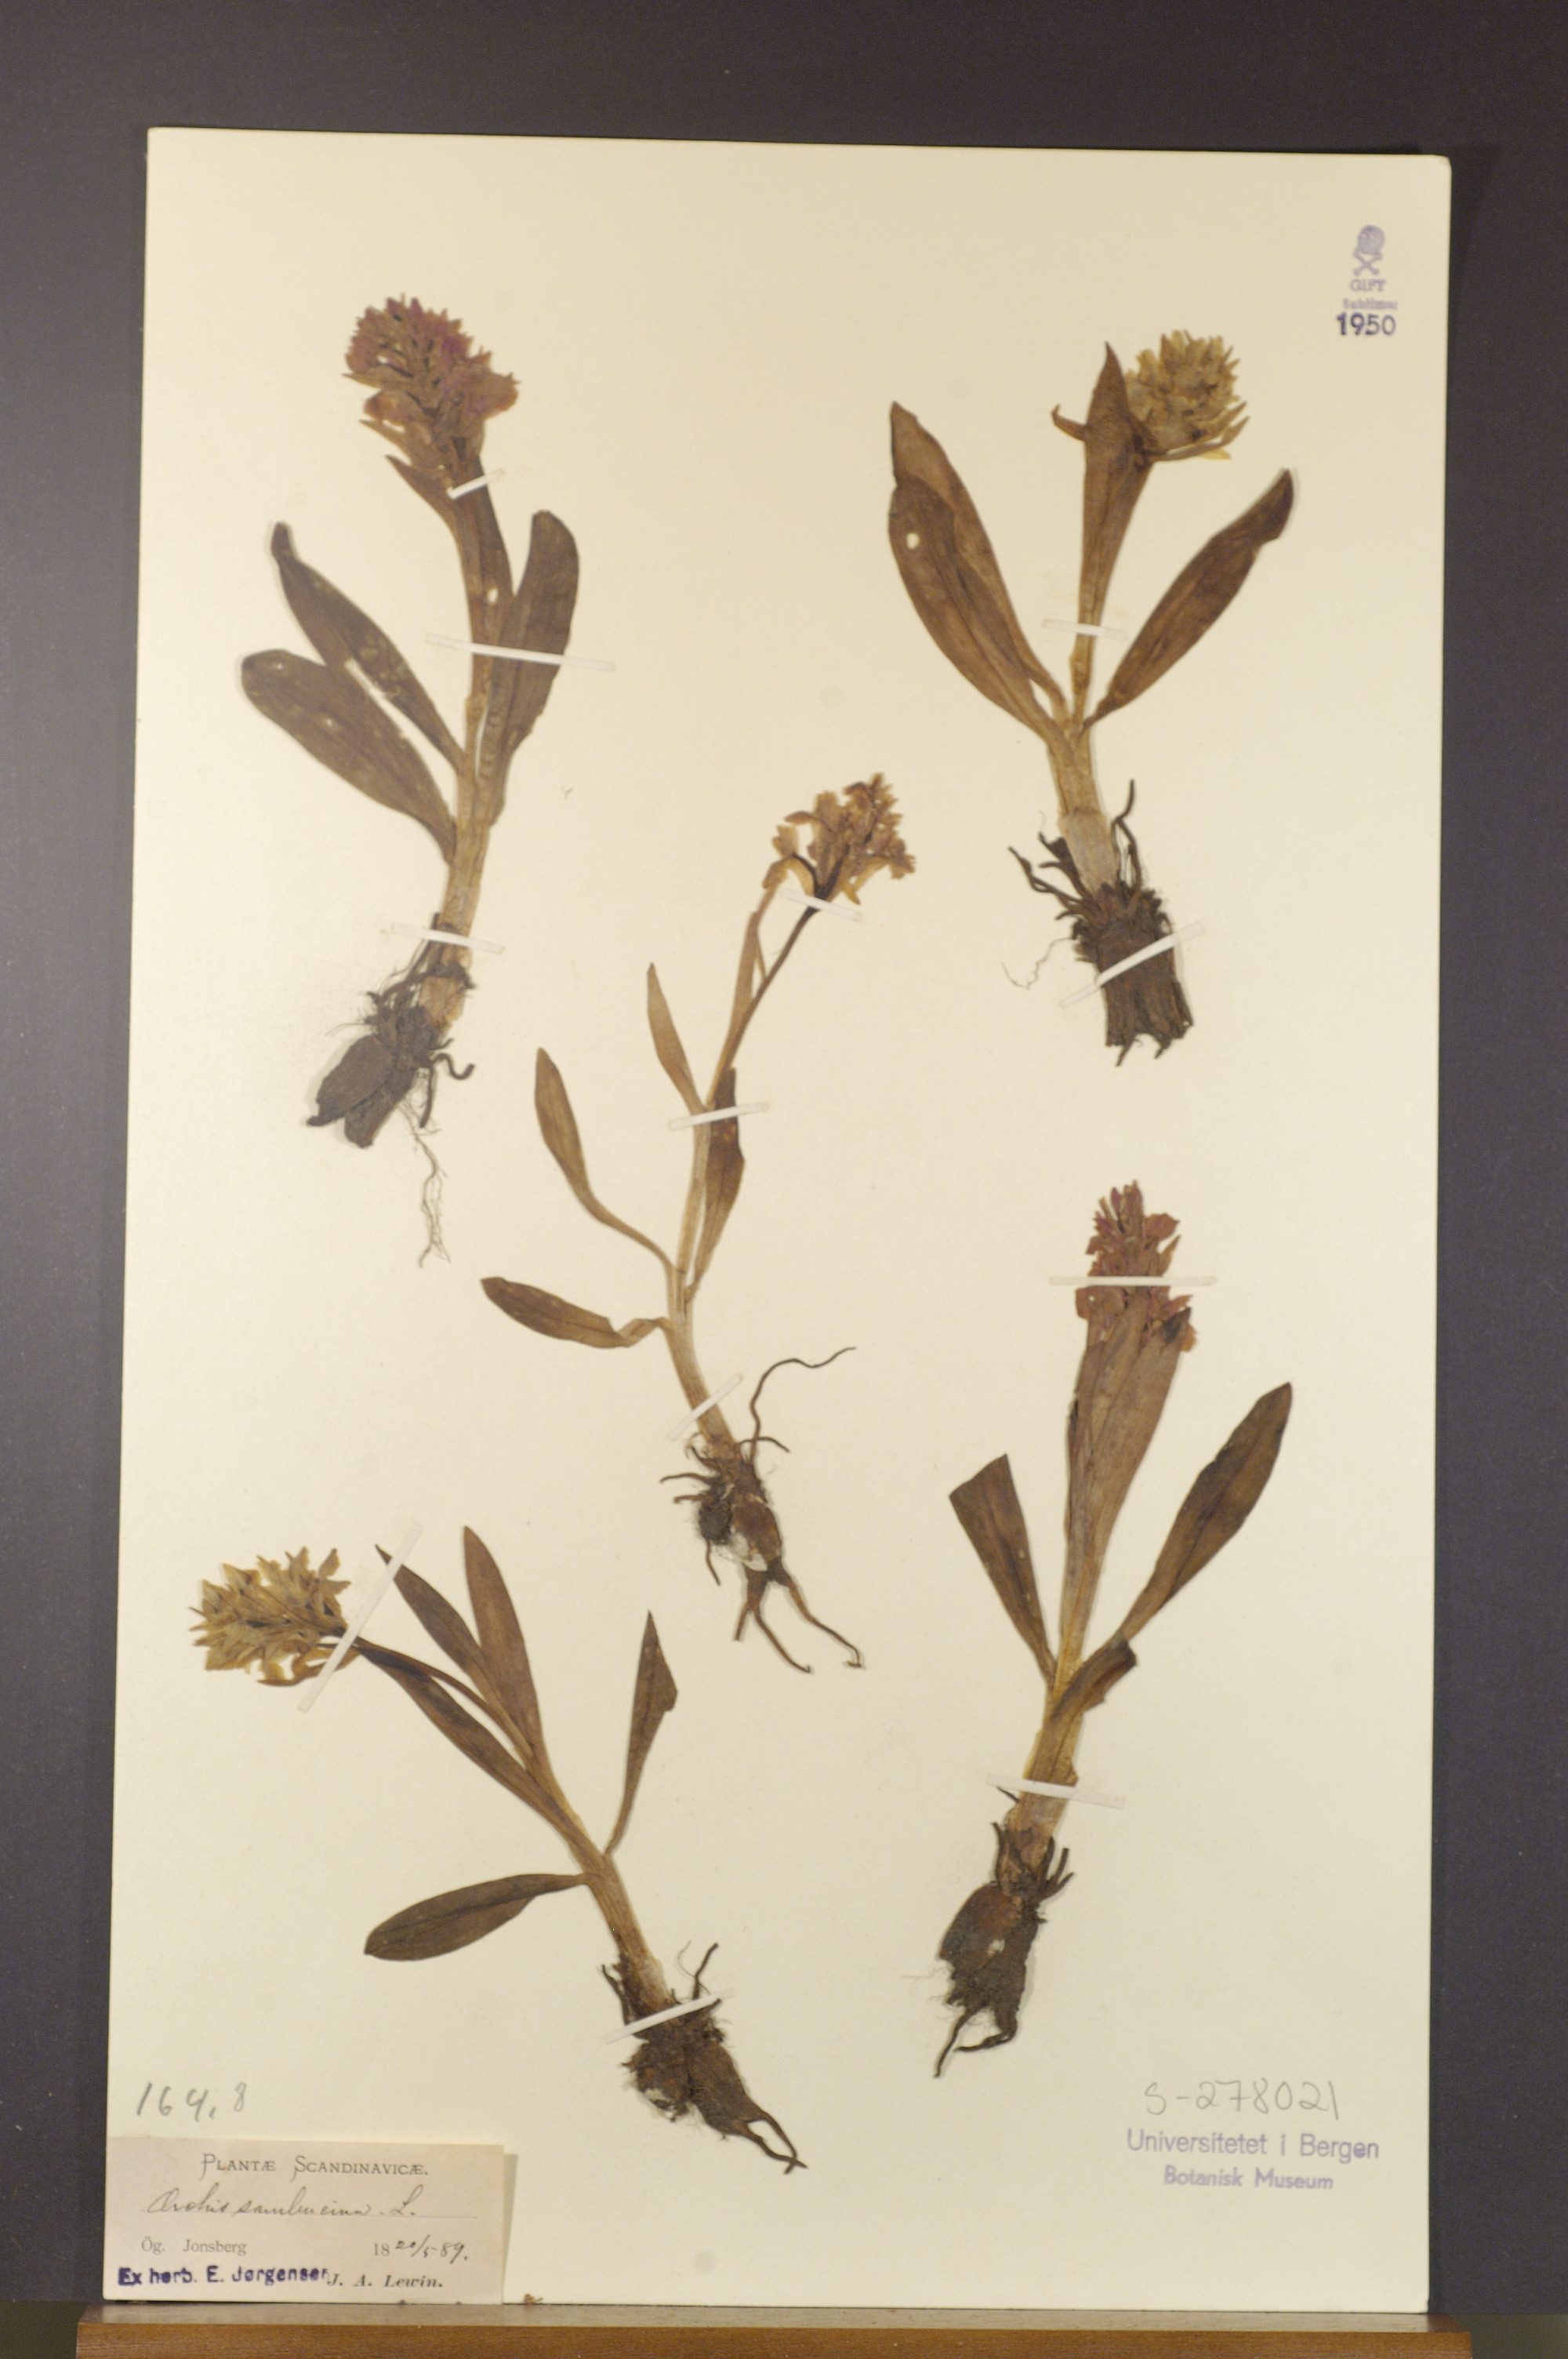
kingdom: Plantae
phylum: Tracheophyta
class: Liliopsida
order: Asparagales
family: Orchidaceae
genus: Dactylorhiza
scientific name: Dactylorhiza sambucina
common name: Elder-flowered orchid
